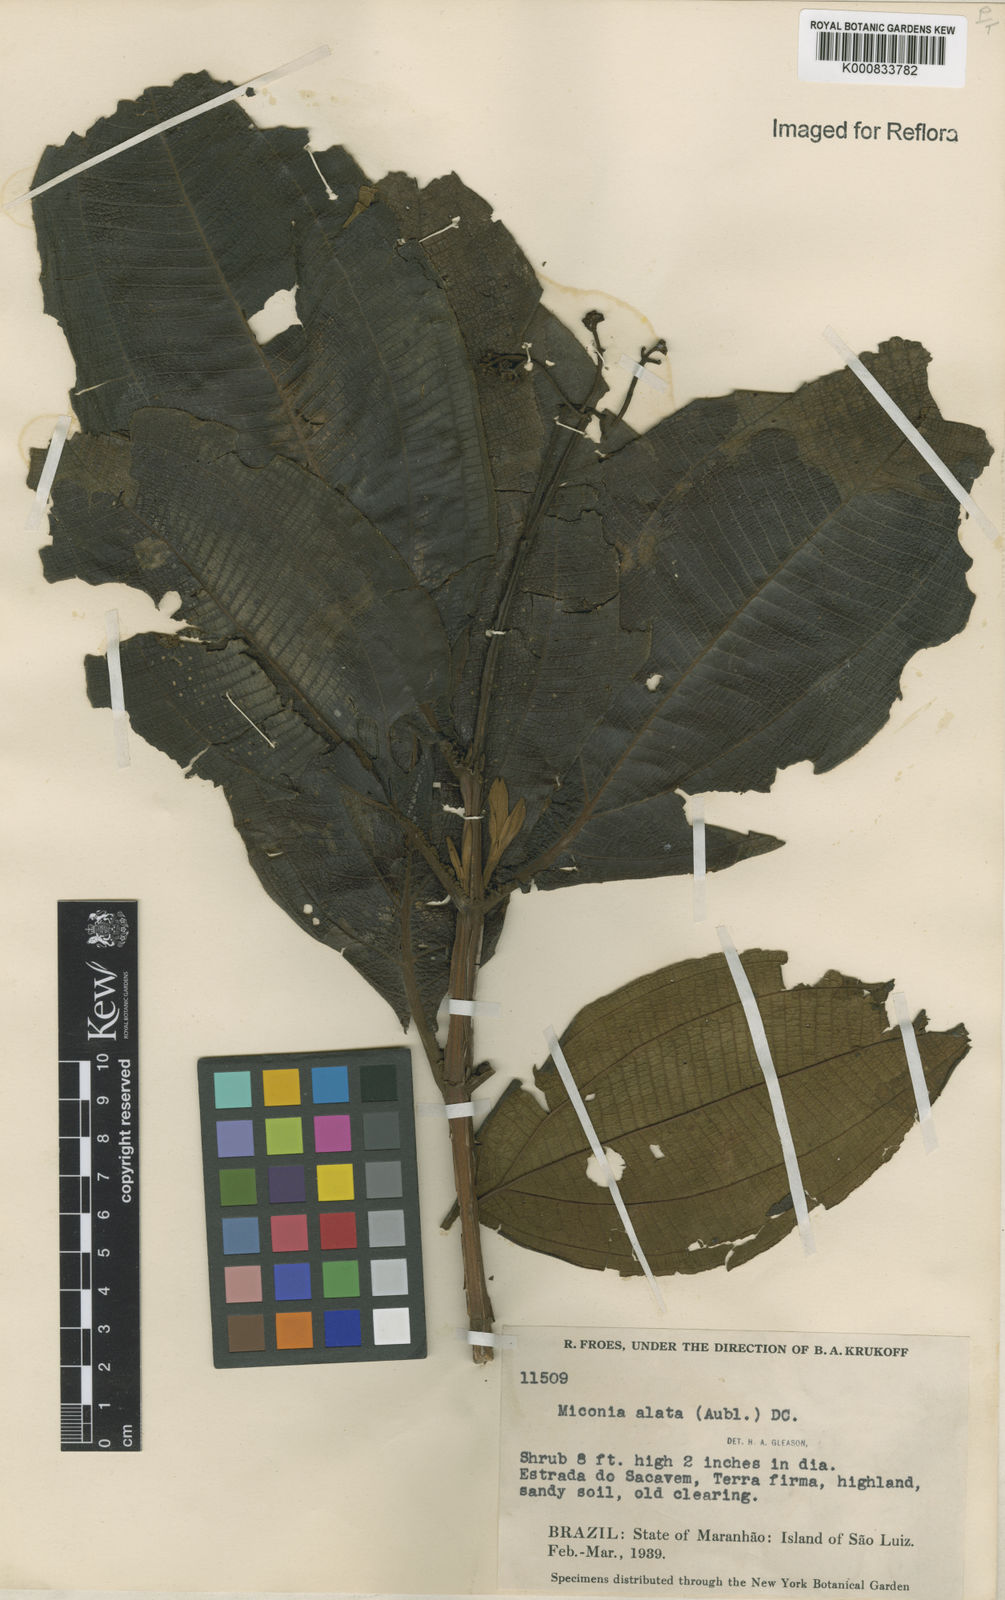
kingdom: Plantae
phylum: Tracheophyta
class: Magnoliopsida
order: Myrtales
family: Melastomataceae
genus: Miconia
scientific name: Miconia alata
